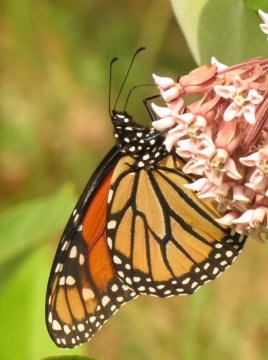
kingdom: Animalia
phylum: Arthropoda
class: Insecta
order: Lepidoptera
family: Nymphalidae
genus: Danaus
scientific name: Danaus plexippus
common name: Monarch
